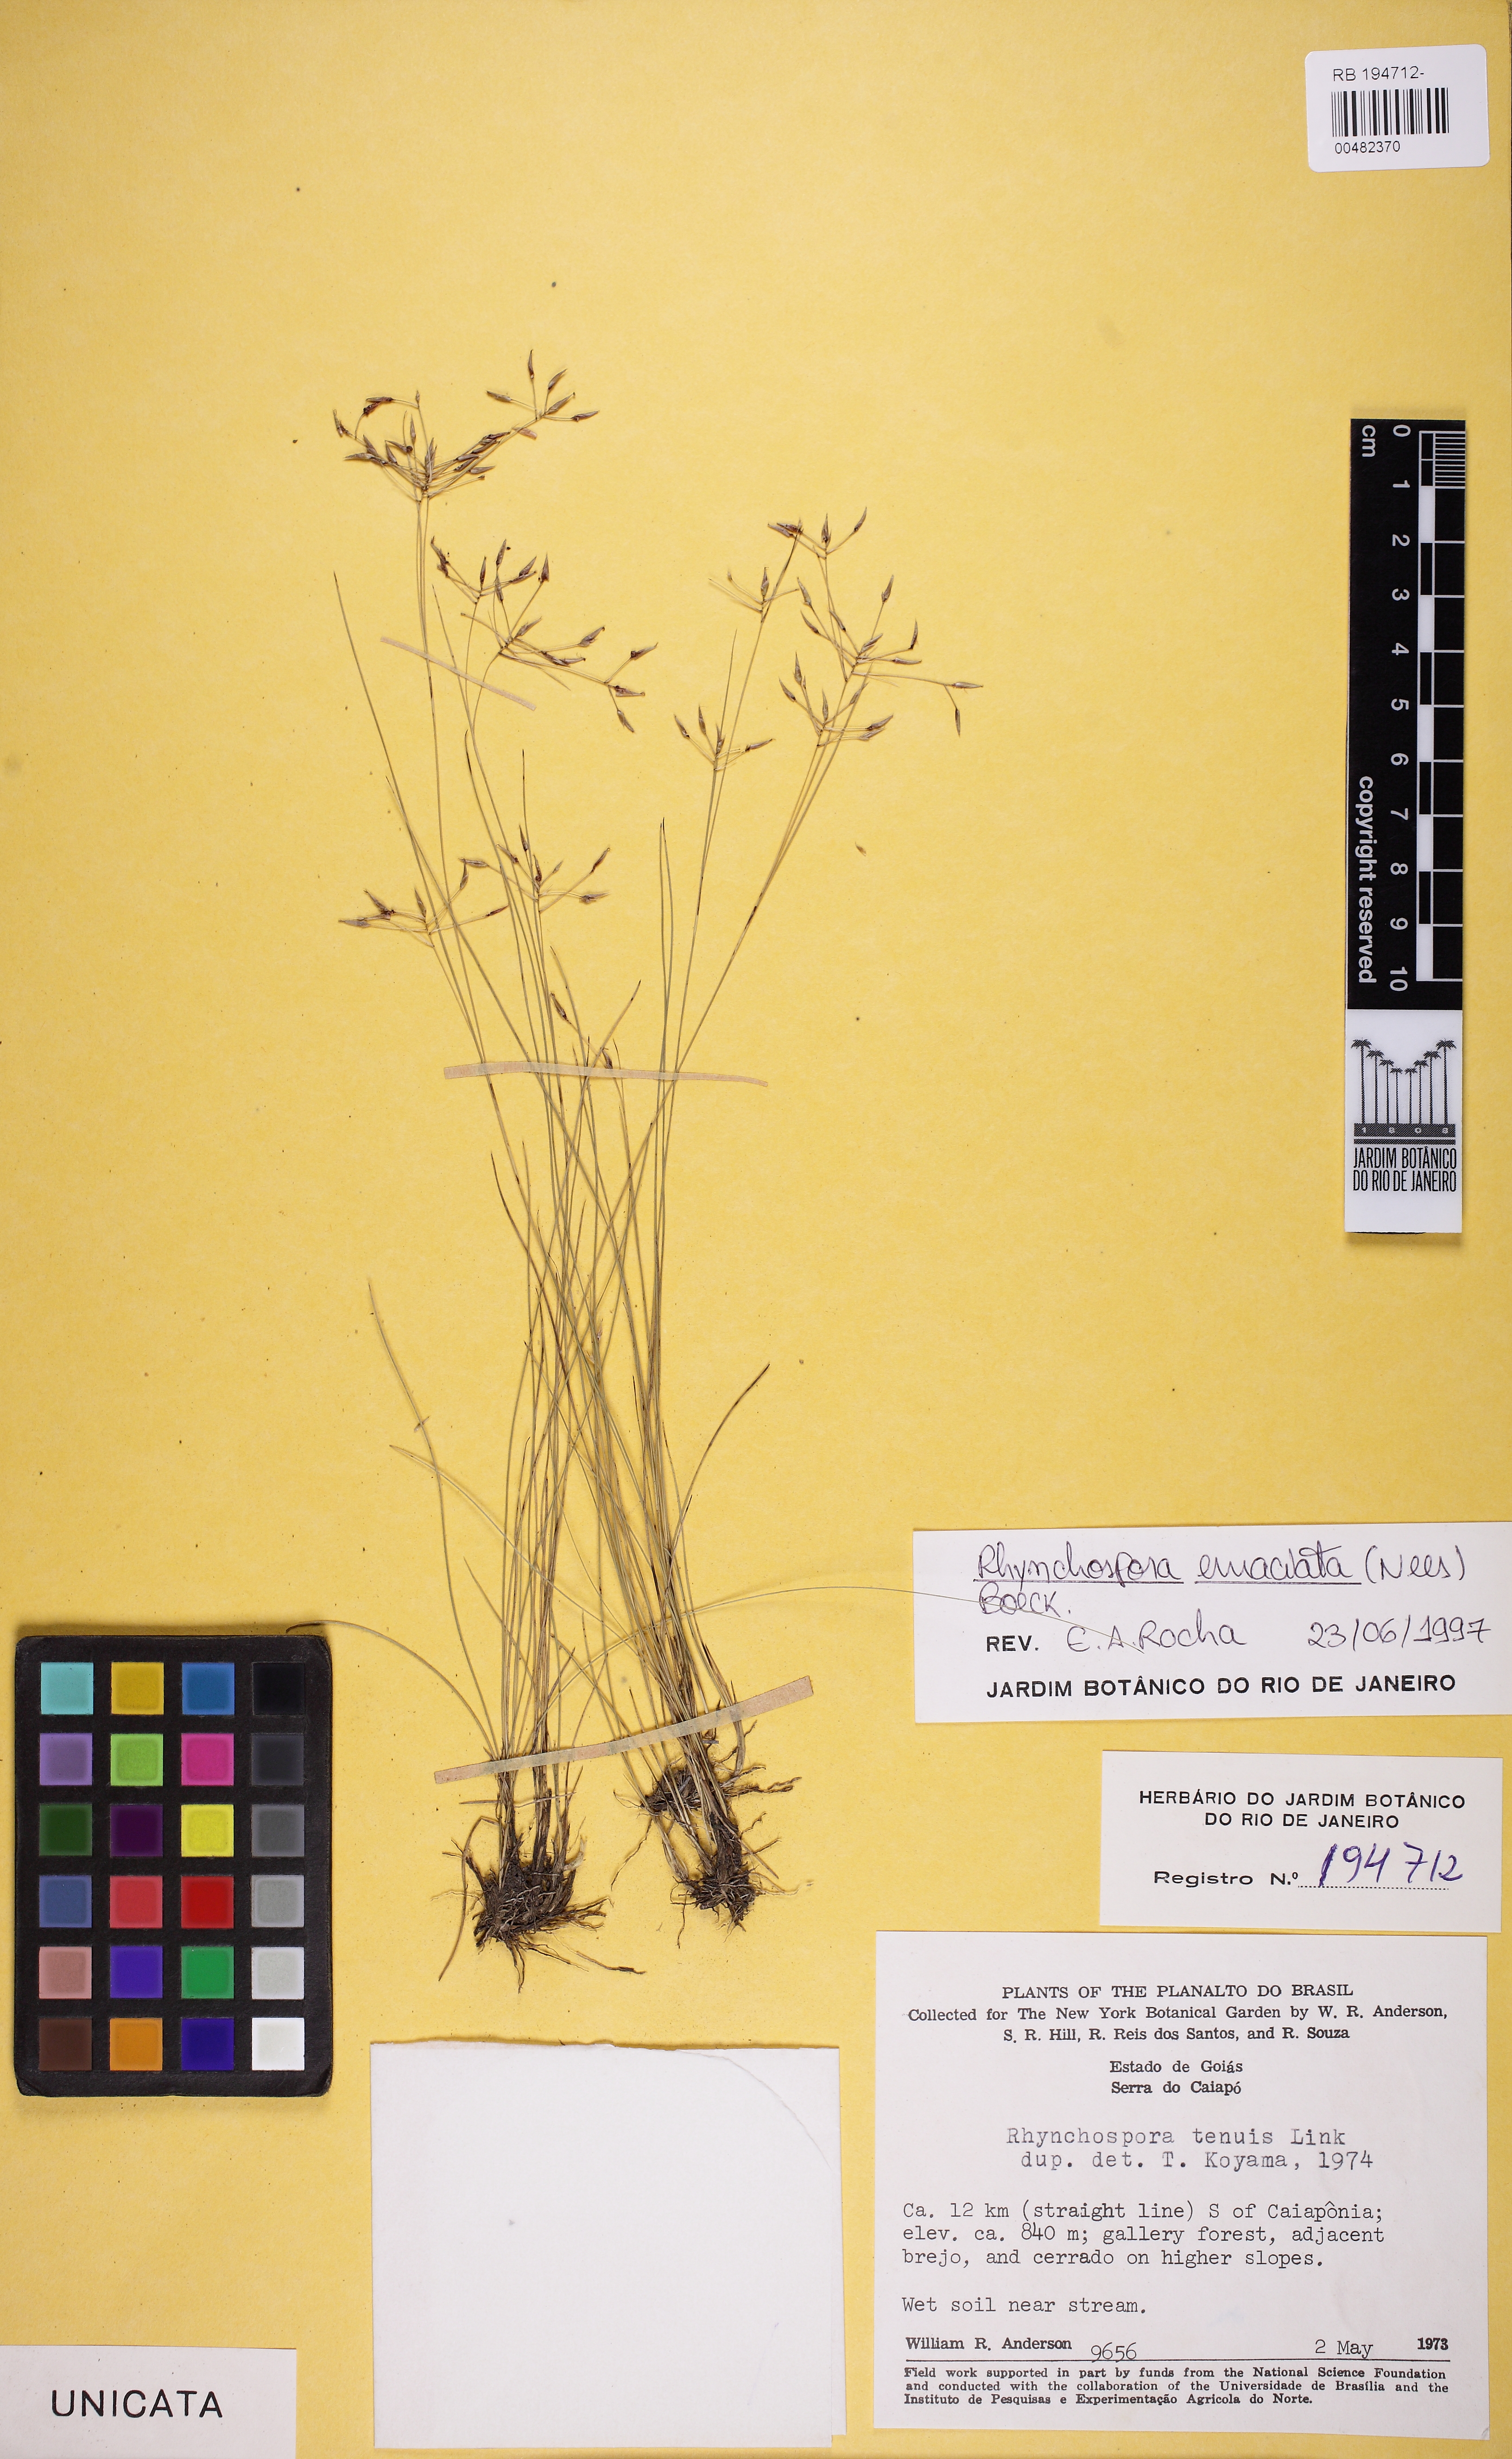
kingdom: Plantae
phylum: Tracheophyta
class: Liliopsida
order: Poales
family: Cyperaceae
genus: Rhynchospora
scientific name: Rhynchospora emaciata
